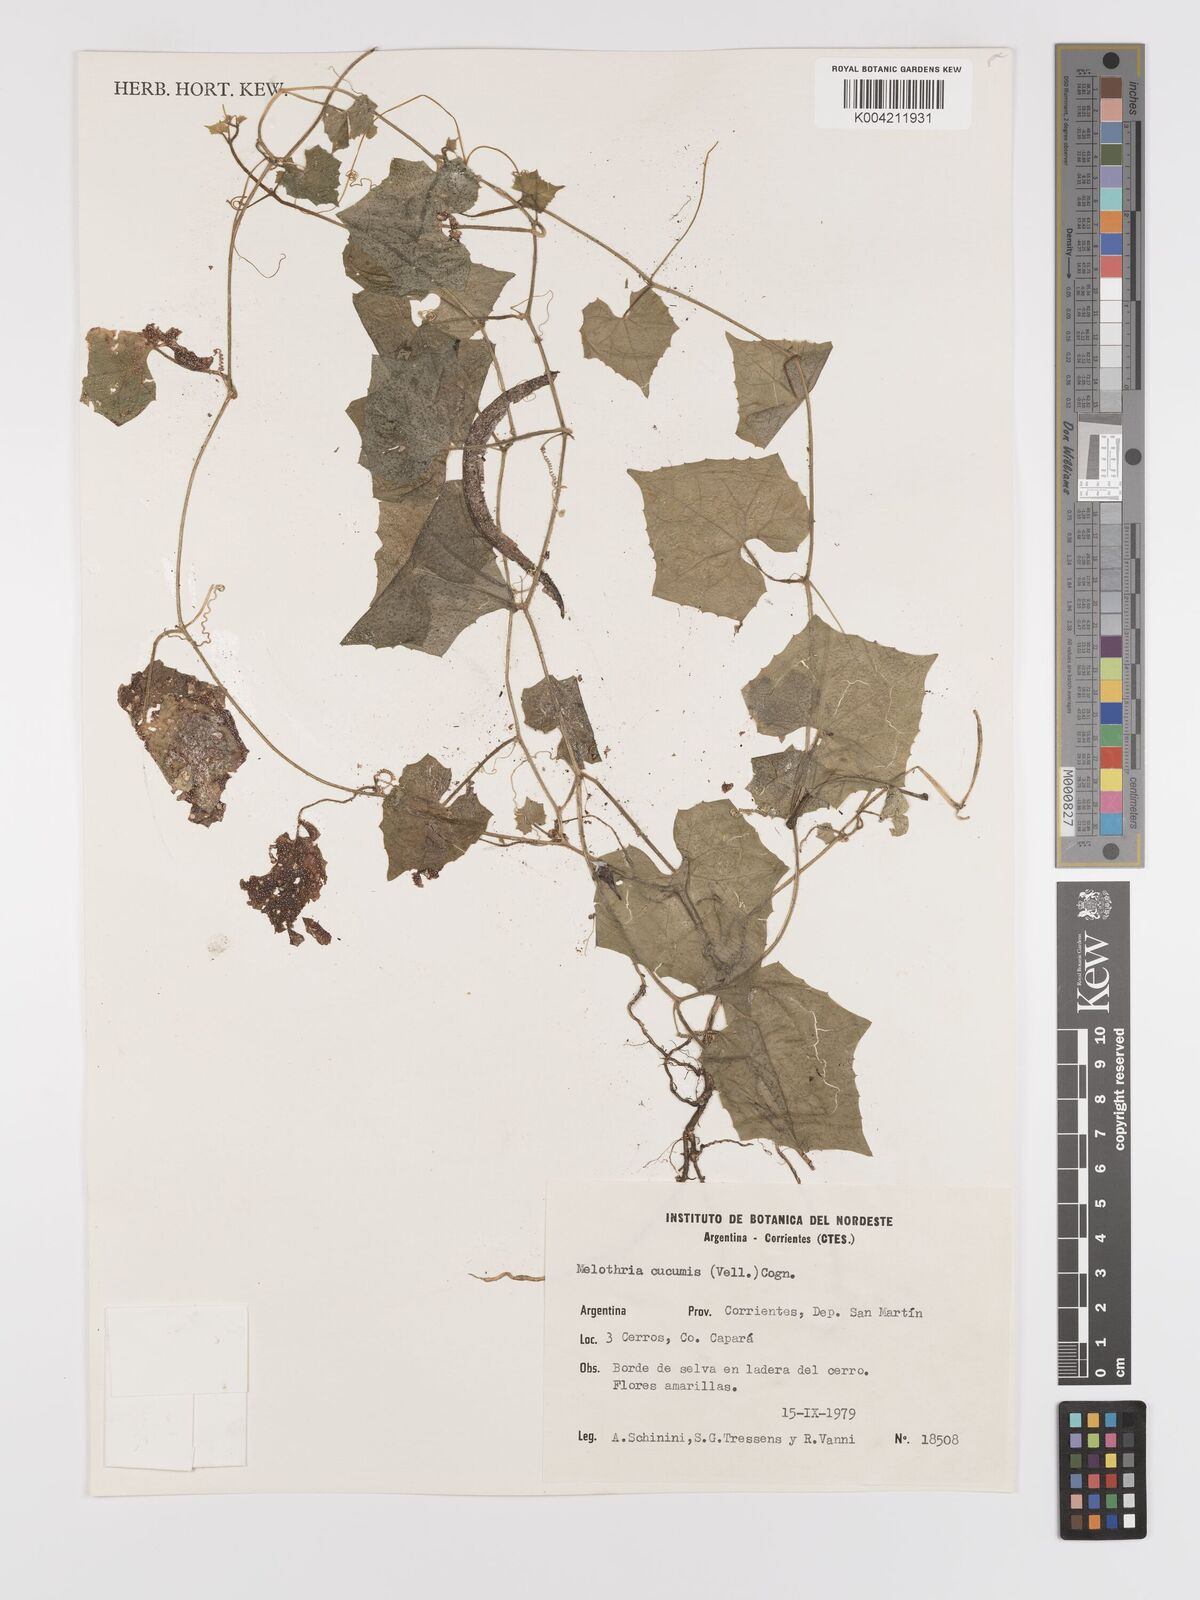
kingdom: Plantae
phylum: Tracheophyta
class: Magnoliopsida
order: Cucurbitales
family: Cucurbitaceae
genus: Melothria
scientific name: Melothria cucumis
